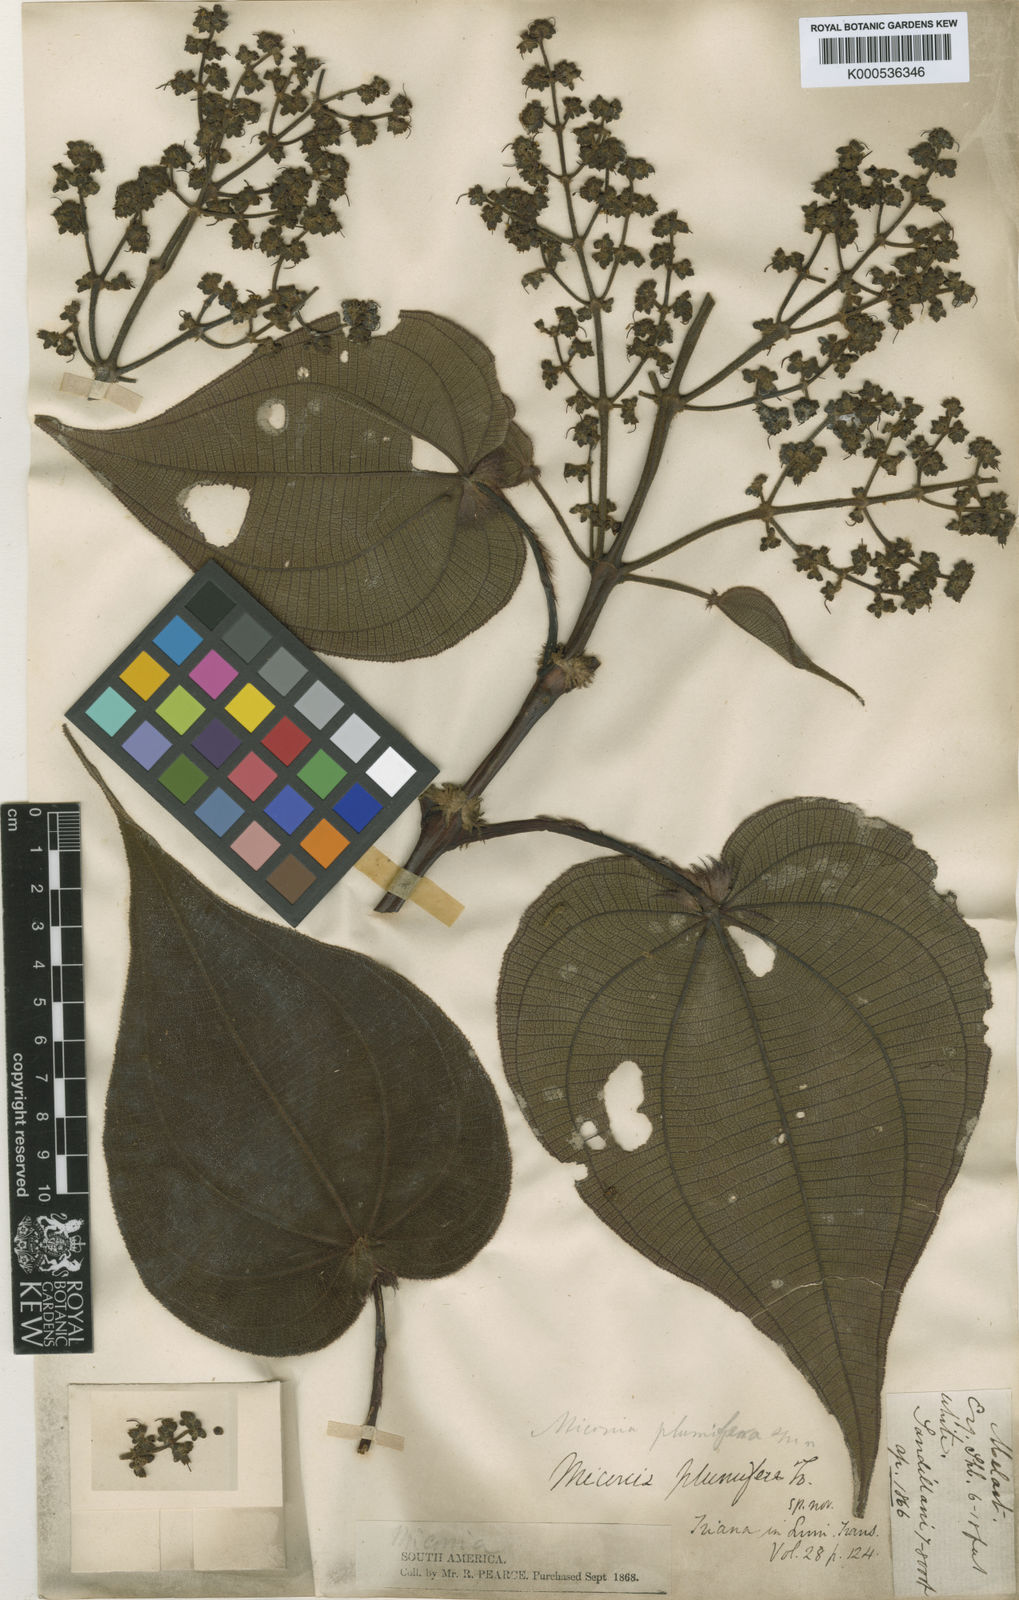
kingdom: Plantae
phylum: Tracheophyta
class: Magnoliopsida
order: Myrtales
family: Melastomataceae
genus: Miconia
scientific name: Miconia plumifera
